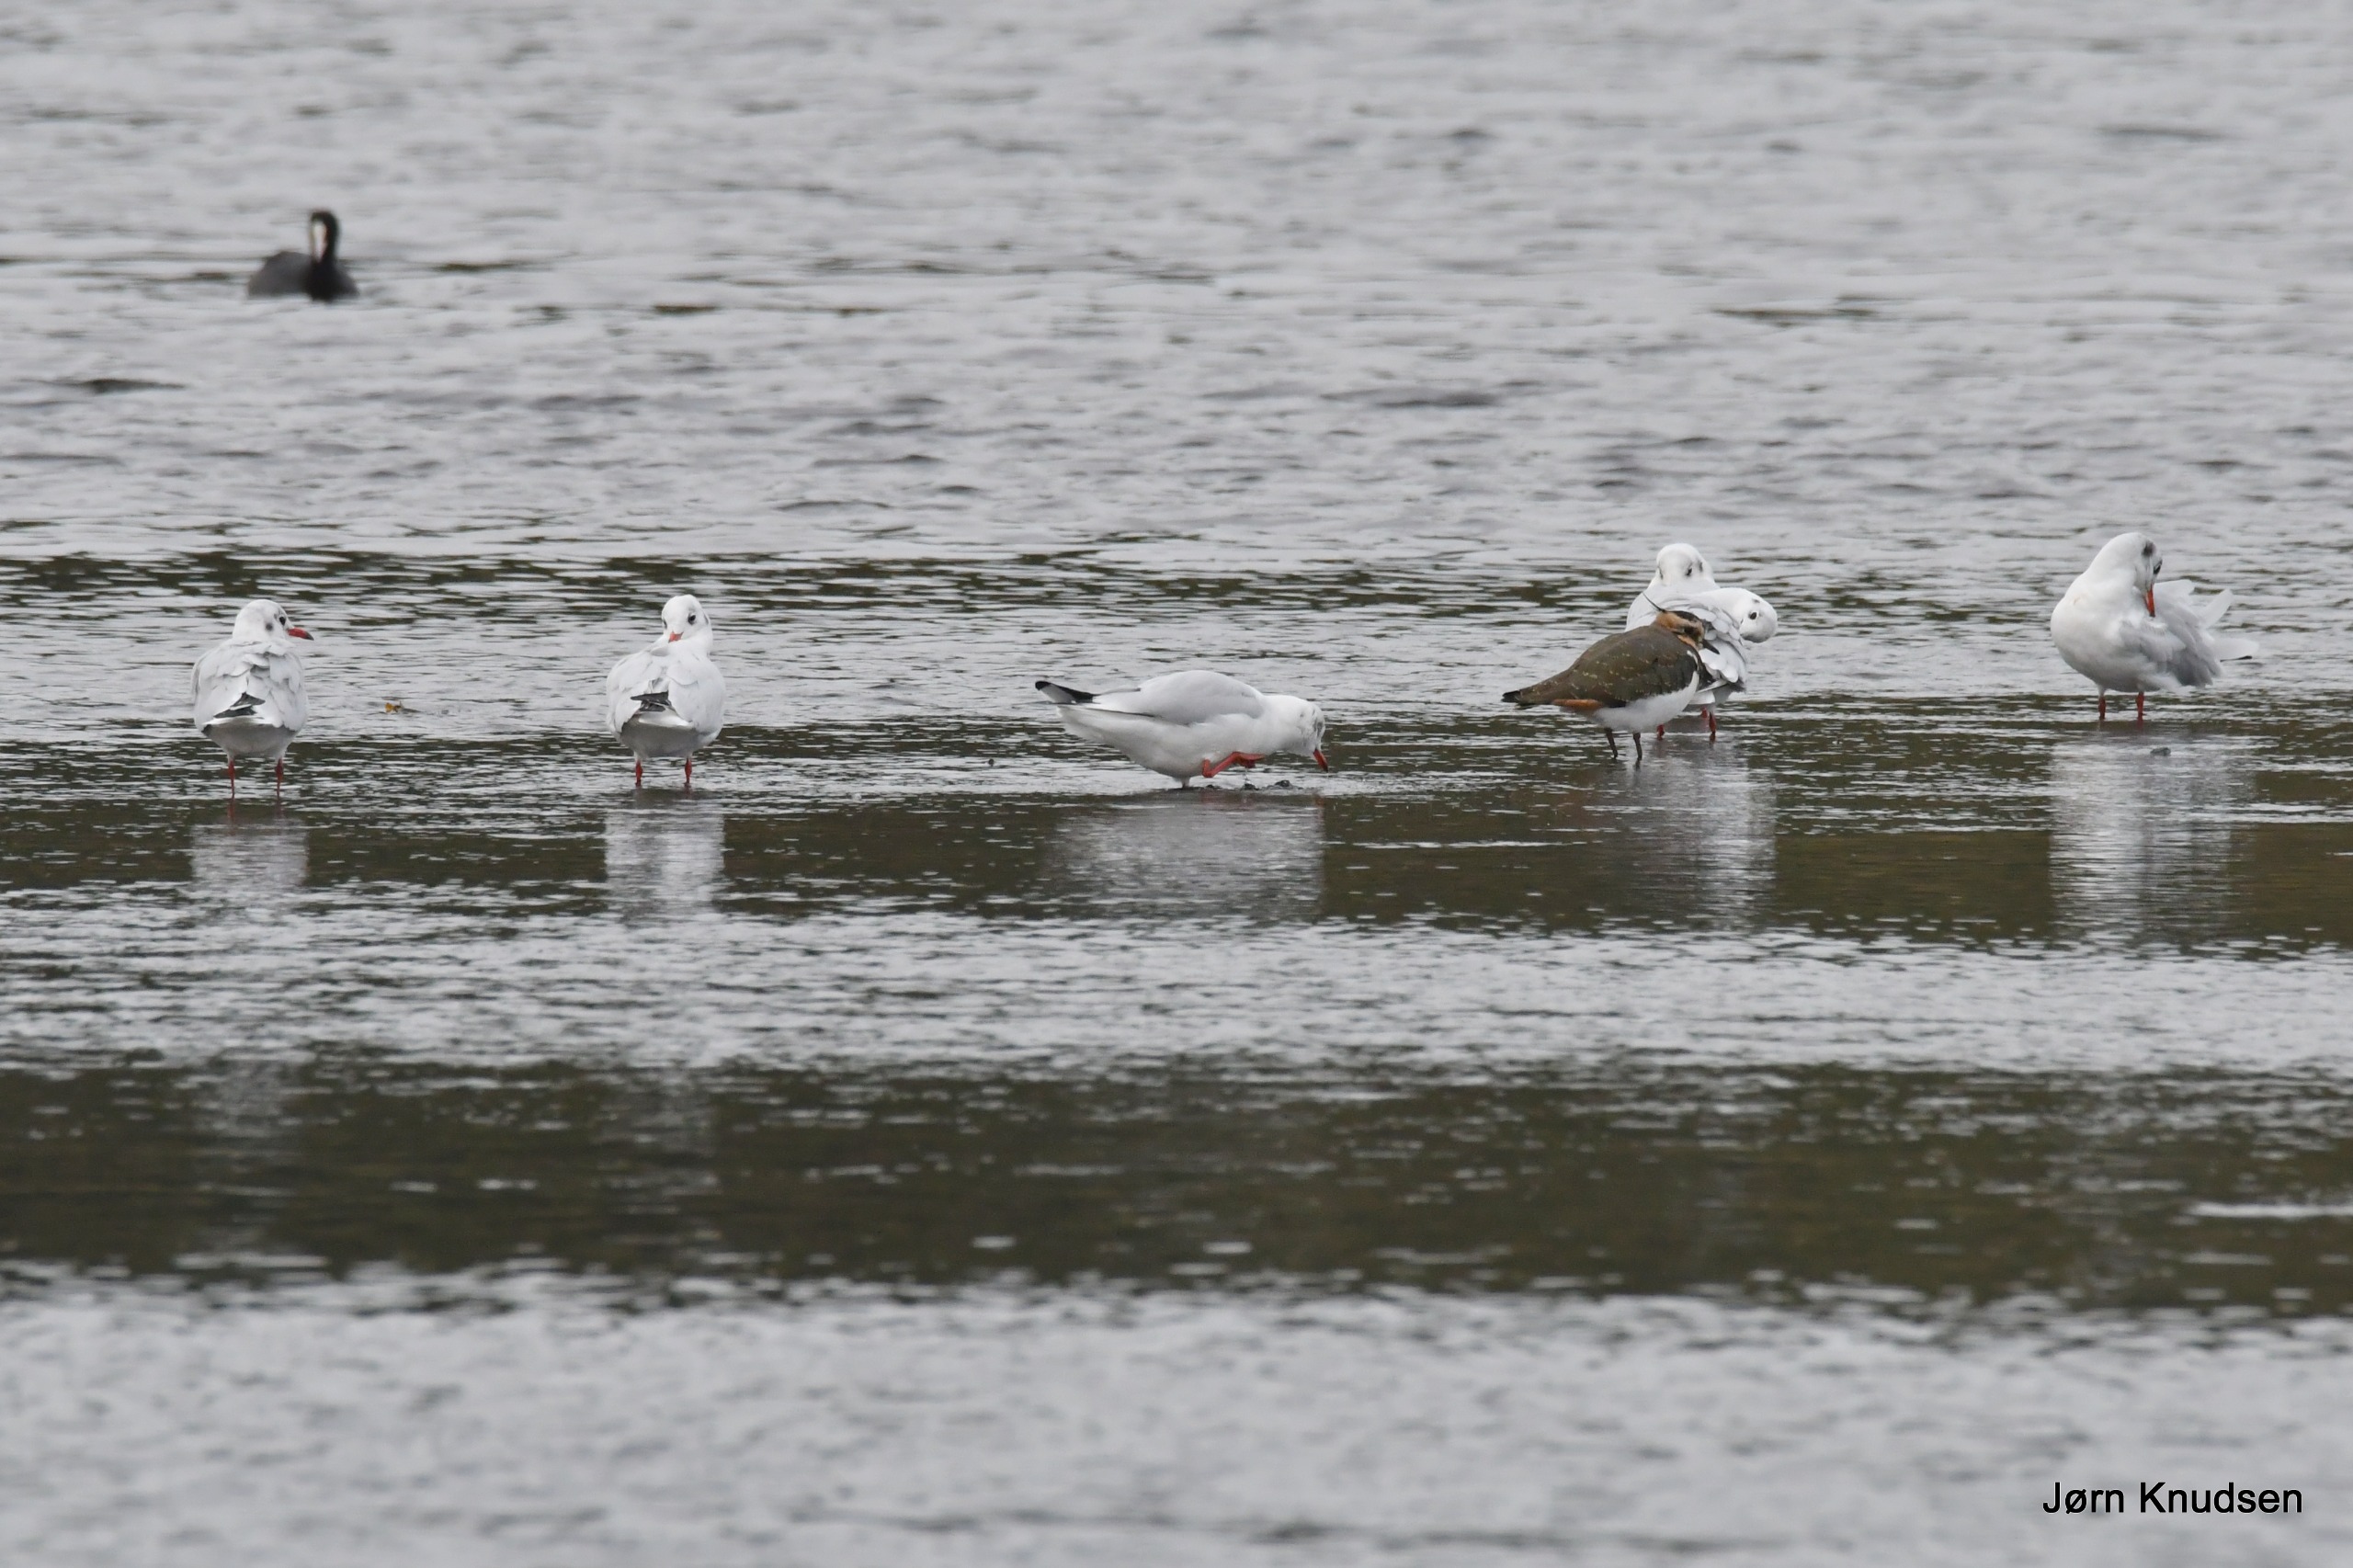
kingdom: Animalia
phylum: Chordata
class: Aves
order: Charadriiformes
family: Laridae
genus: Chroicocephalus
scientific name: Chroicocephalus ridibundus
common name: Hættemåge
